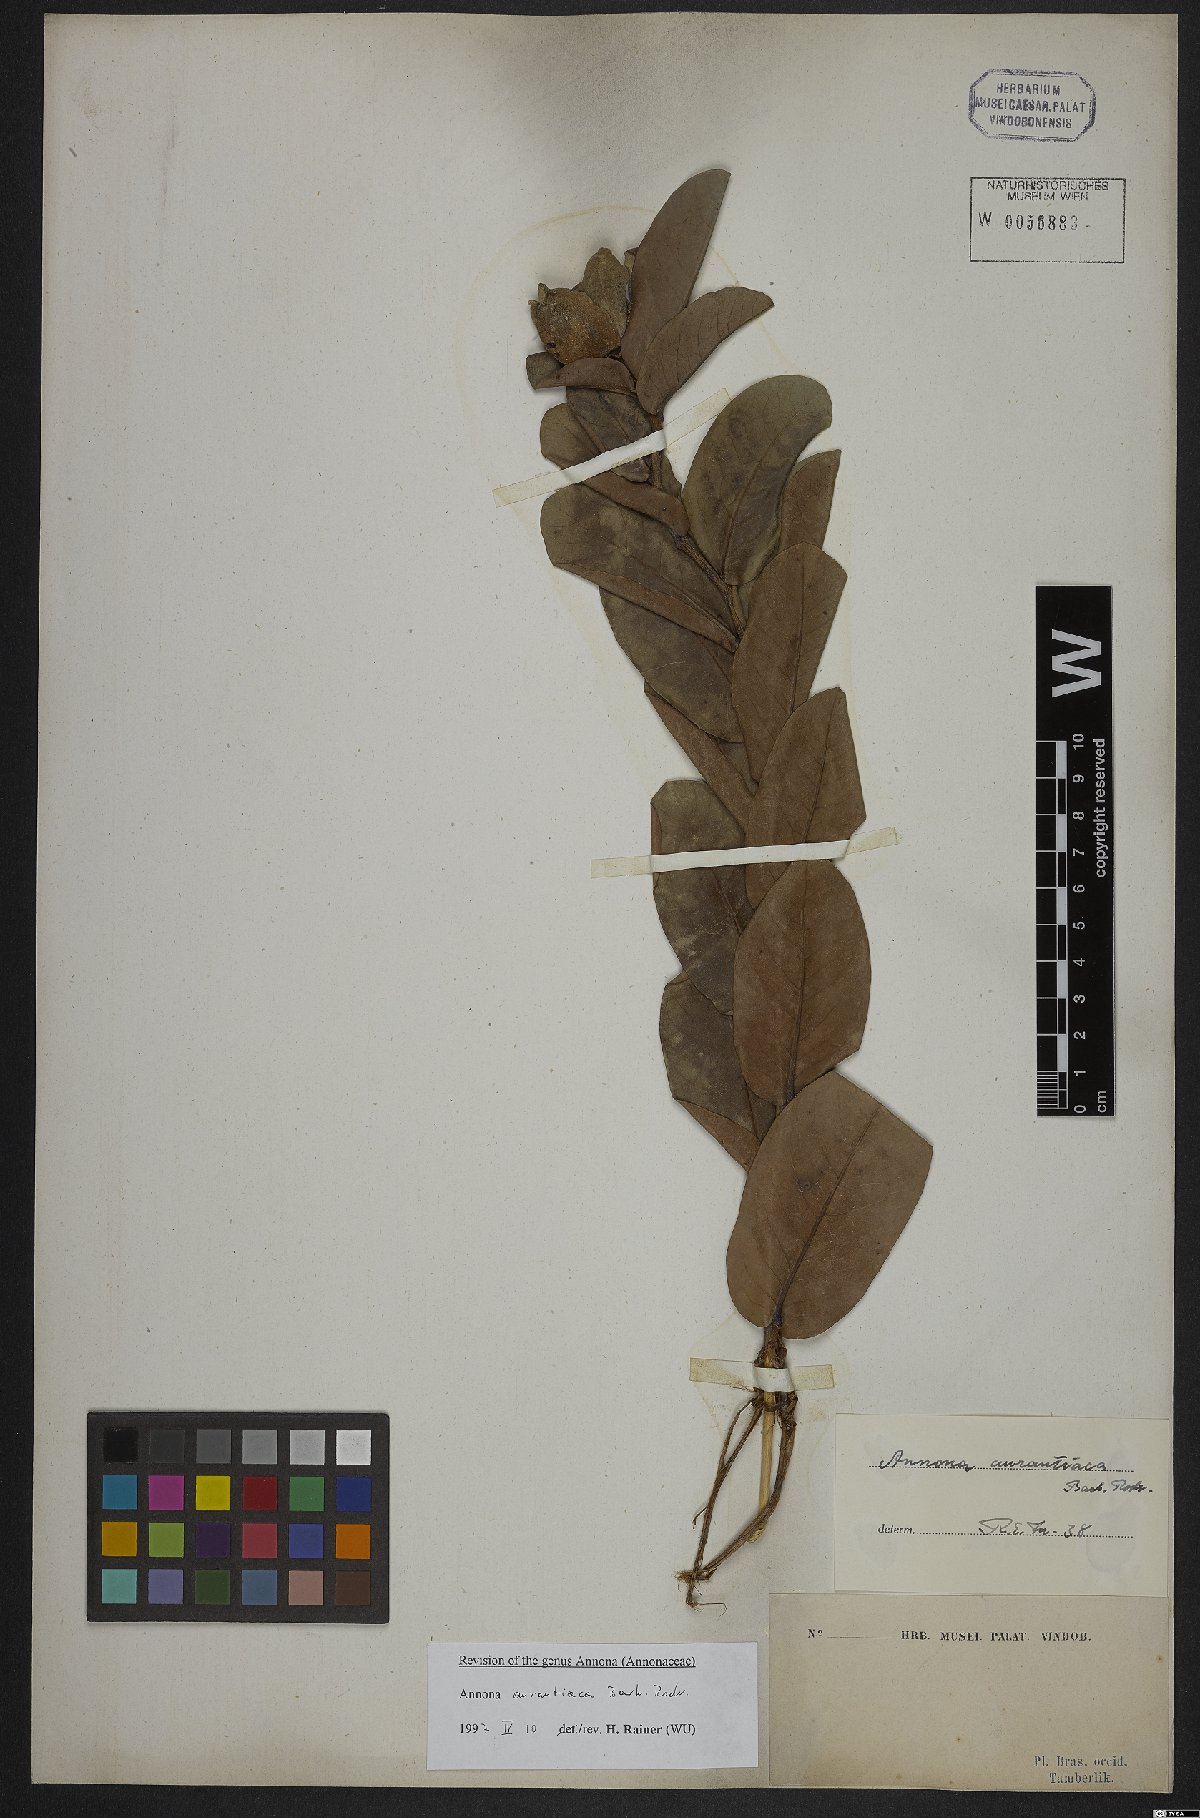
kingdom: Plantae
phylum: Tracheophyta
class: Magnoliopsida
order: Magnoliales
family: Annonaceae
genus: Annona
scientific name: Annona aurantiaca
